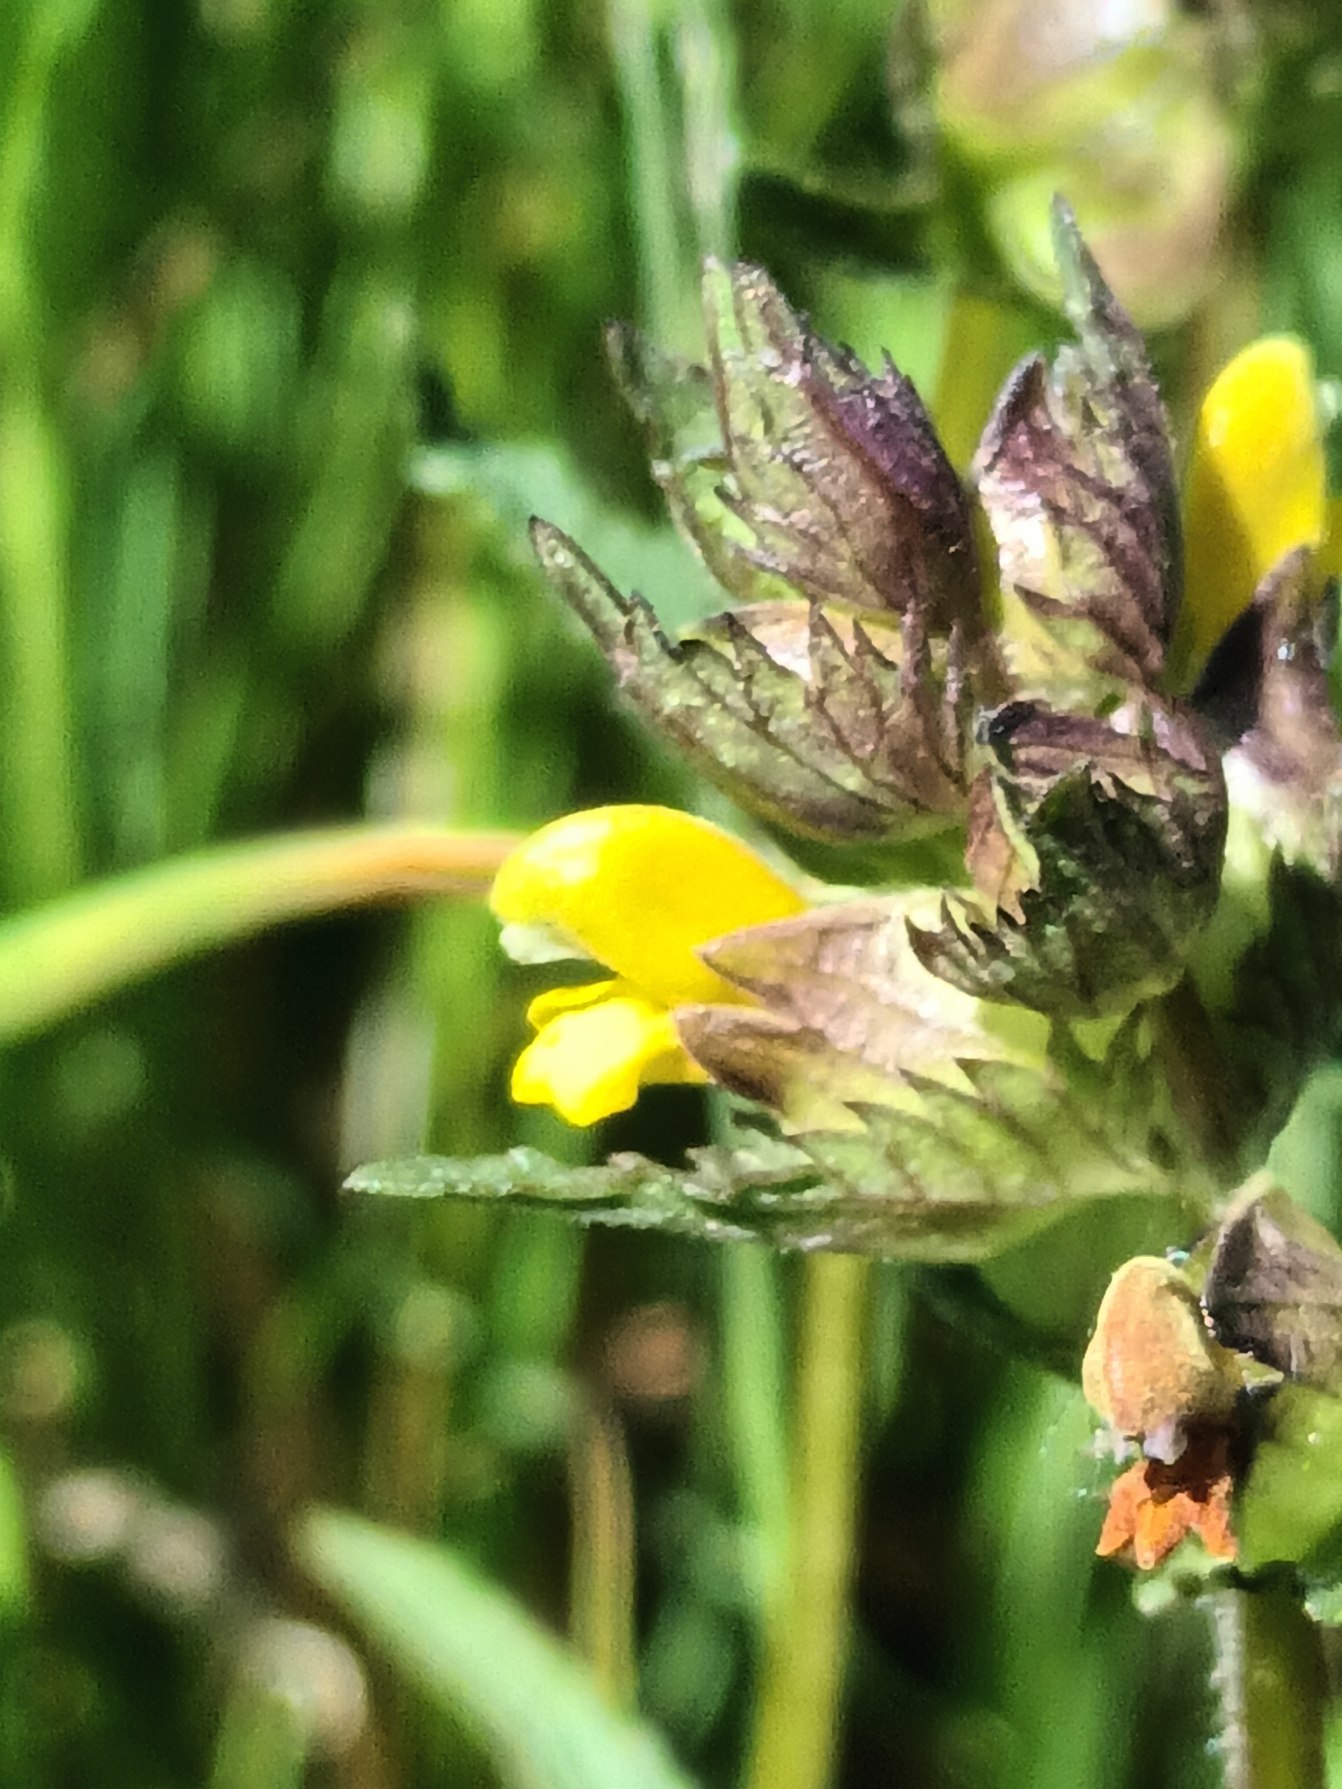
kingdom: Plantae
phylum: Tracheophyta
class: Magnoliopsida
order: Lamiales
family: Orobanchaceae
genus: Rhinanthus
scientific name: Rhinanthus minor
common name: Liden skjaller
